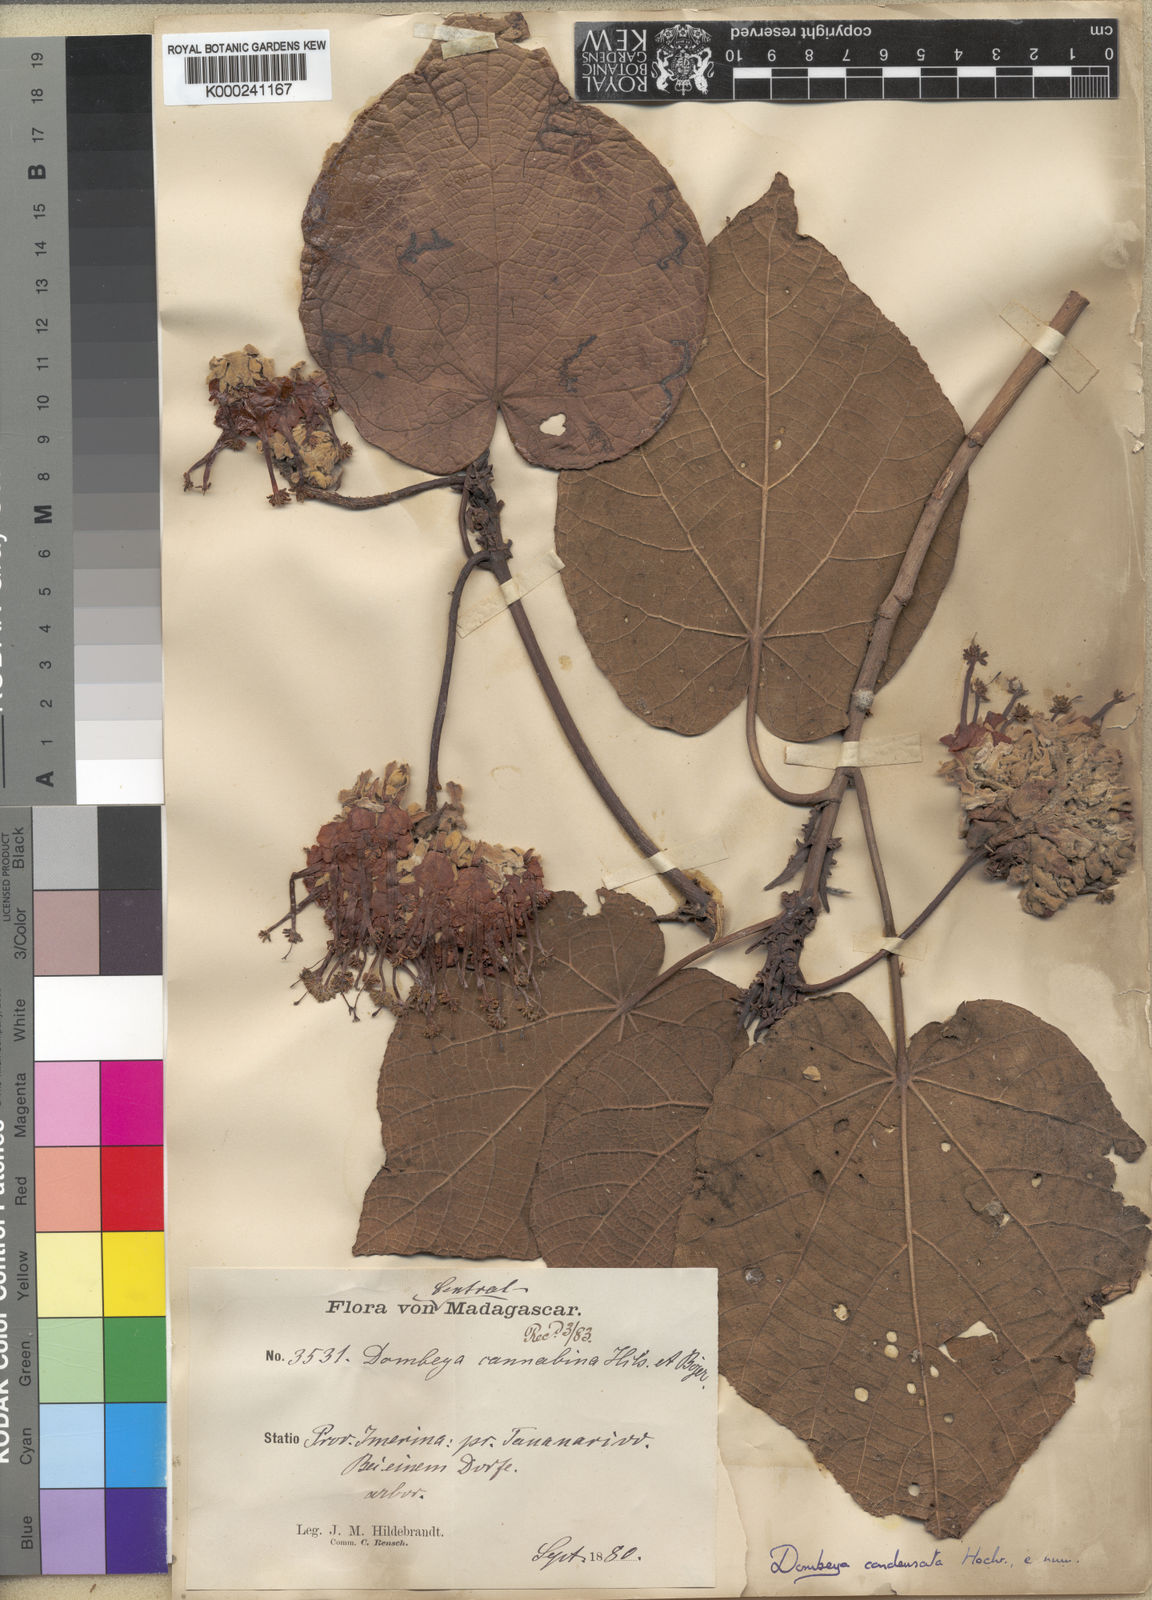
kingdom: Plantae
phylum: Tracheophyta
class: Magnoliopsida
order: Malvales
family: Malvaceae
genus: Dombeya
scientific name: Dombeya condensata
